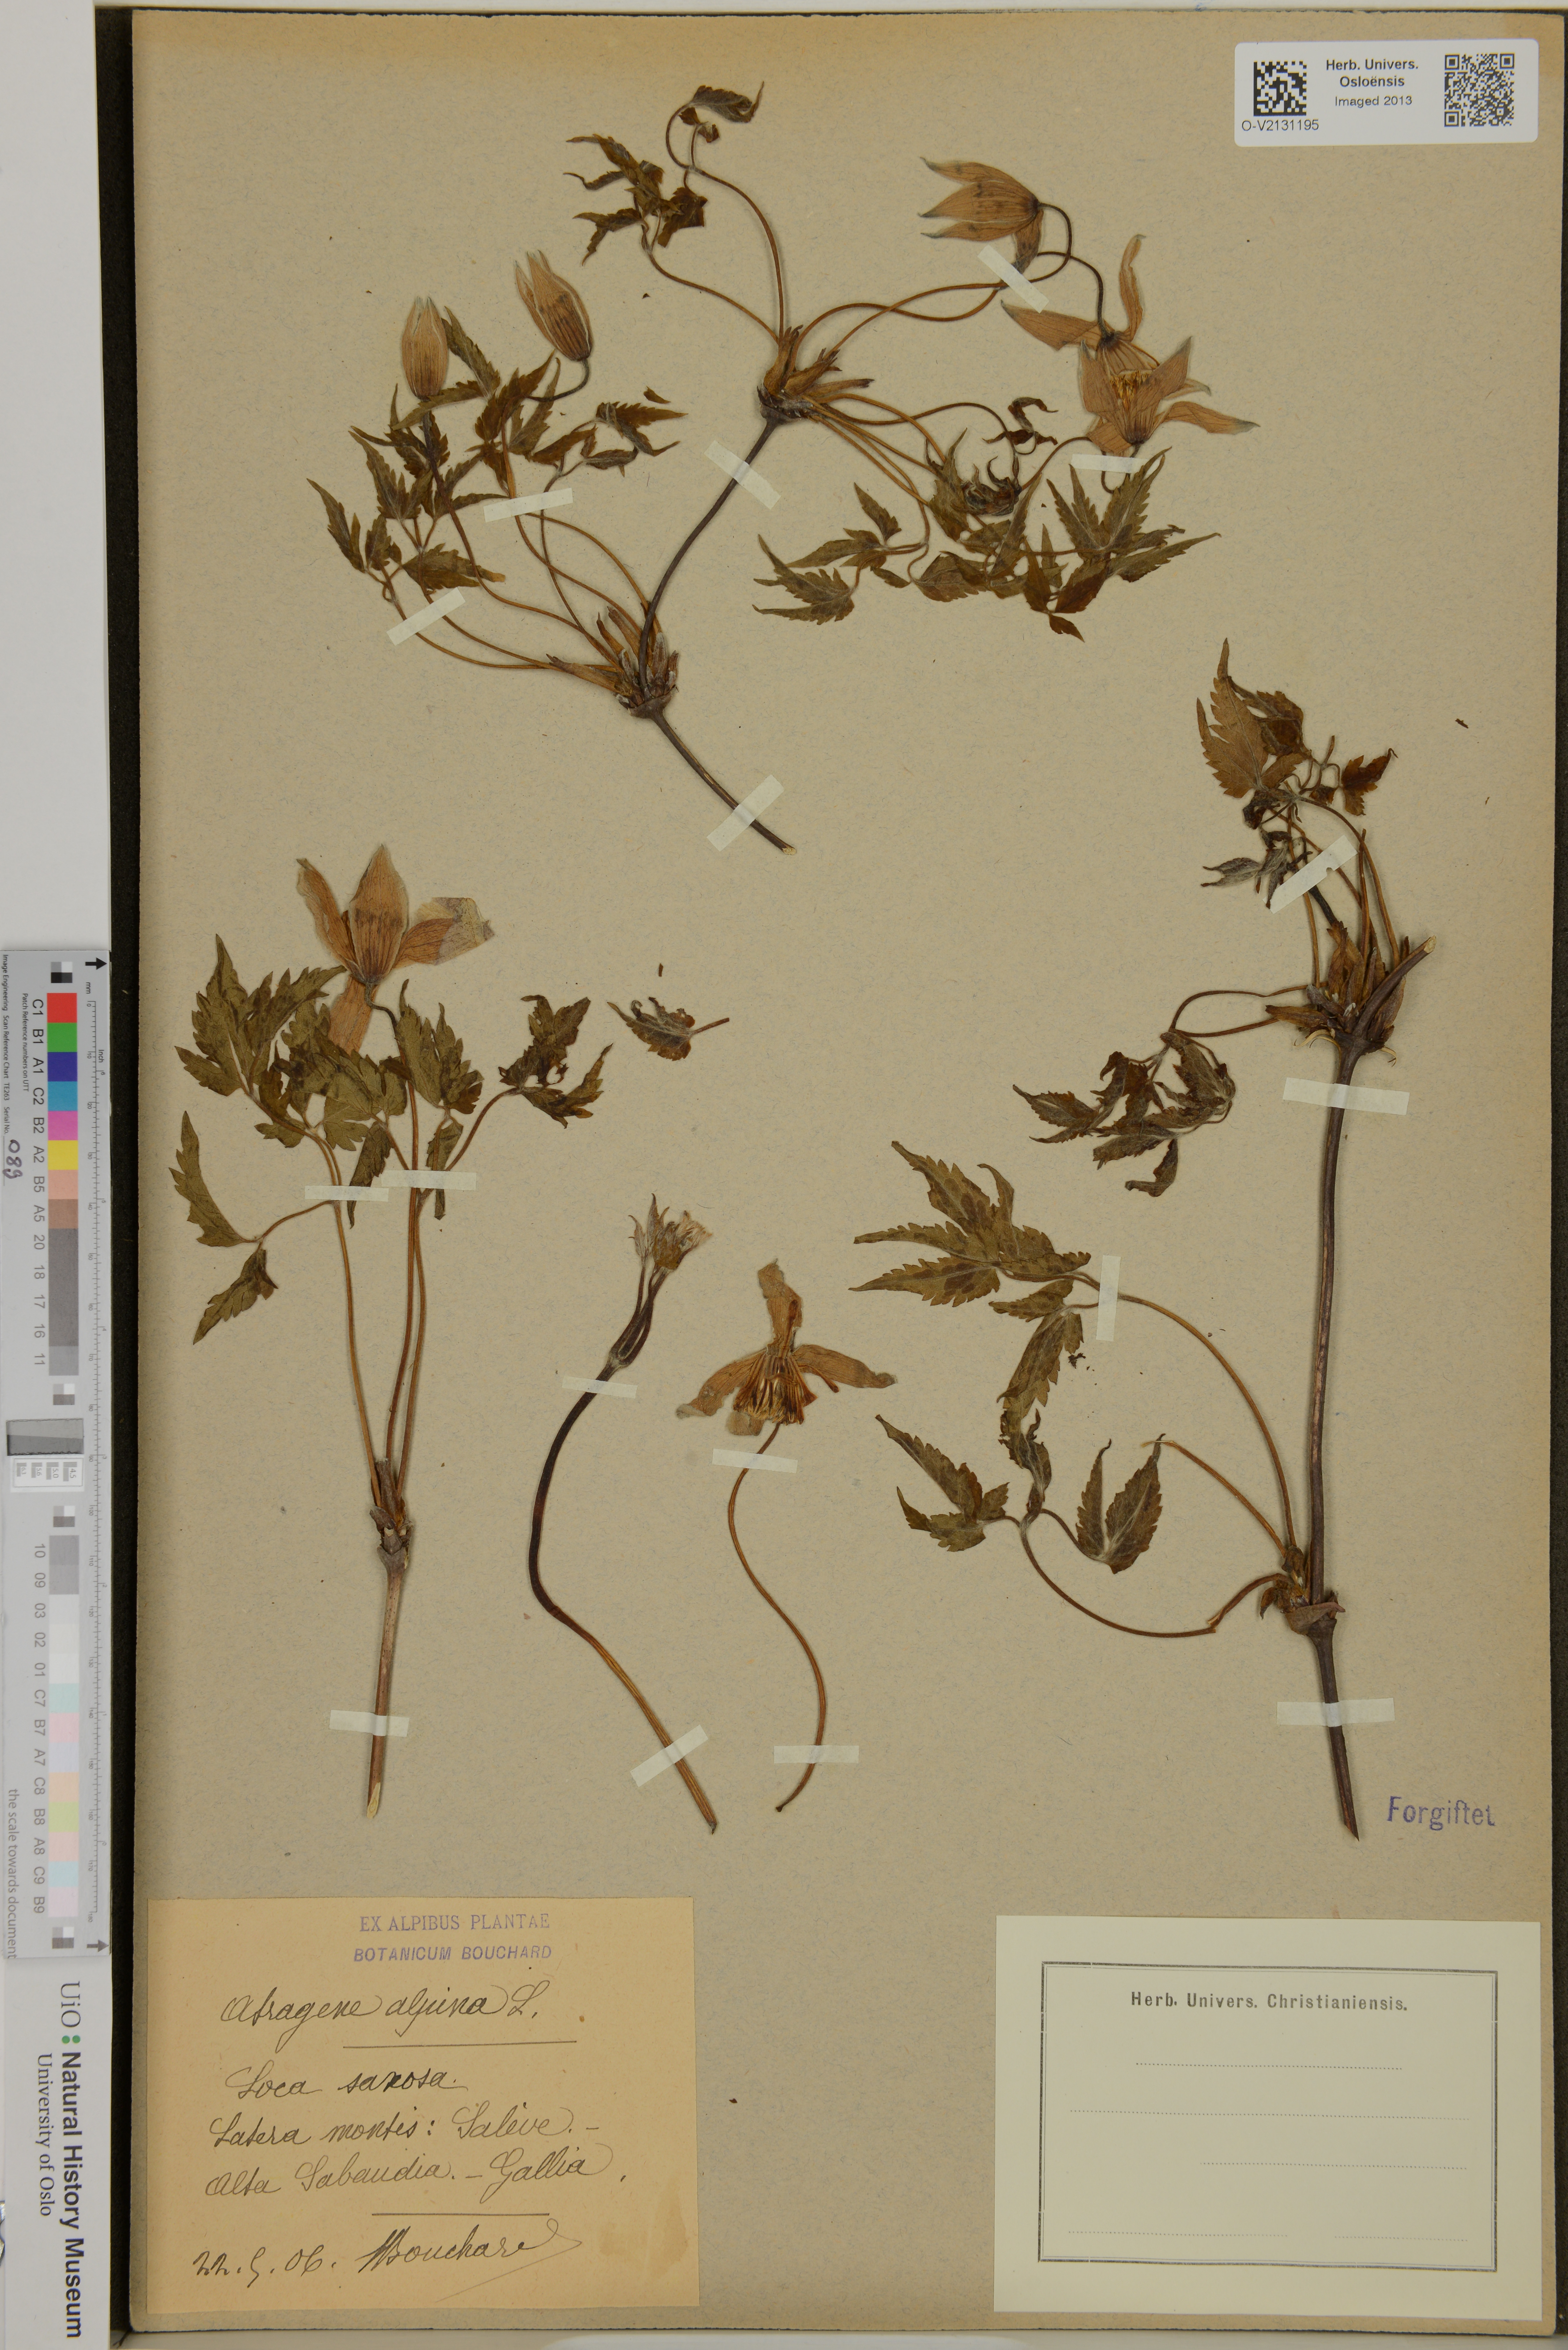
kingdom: Plantae
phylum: Tracheophyta
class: Magnoliopsida
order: Ranunculales
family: Ranunculaceae
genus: Clematis
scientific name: Clematis alpina
